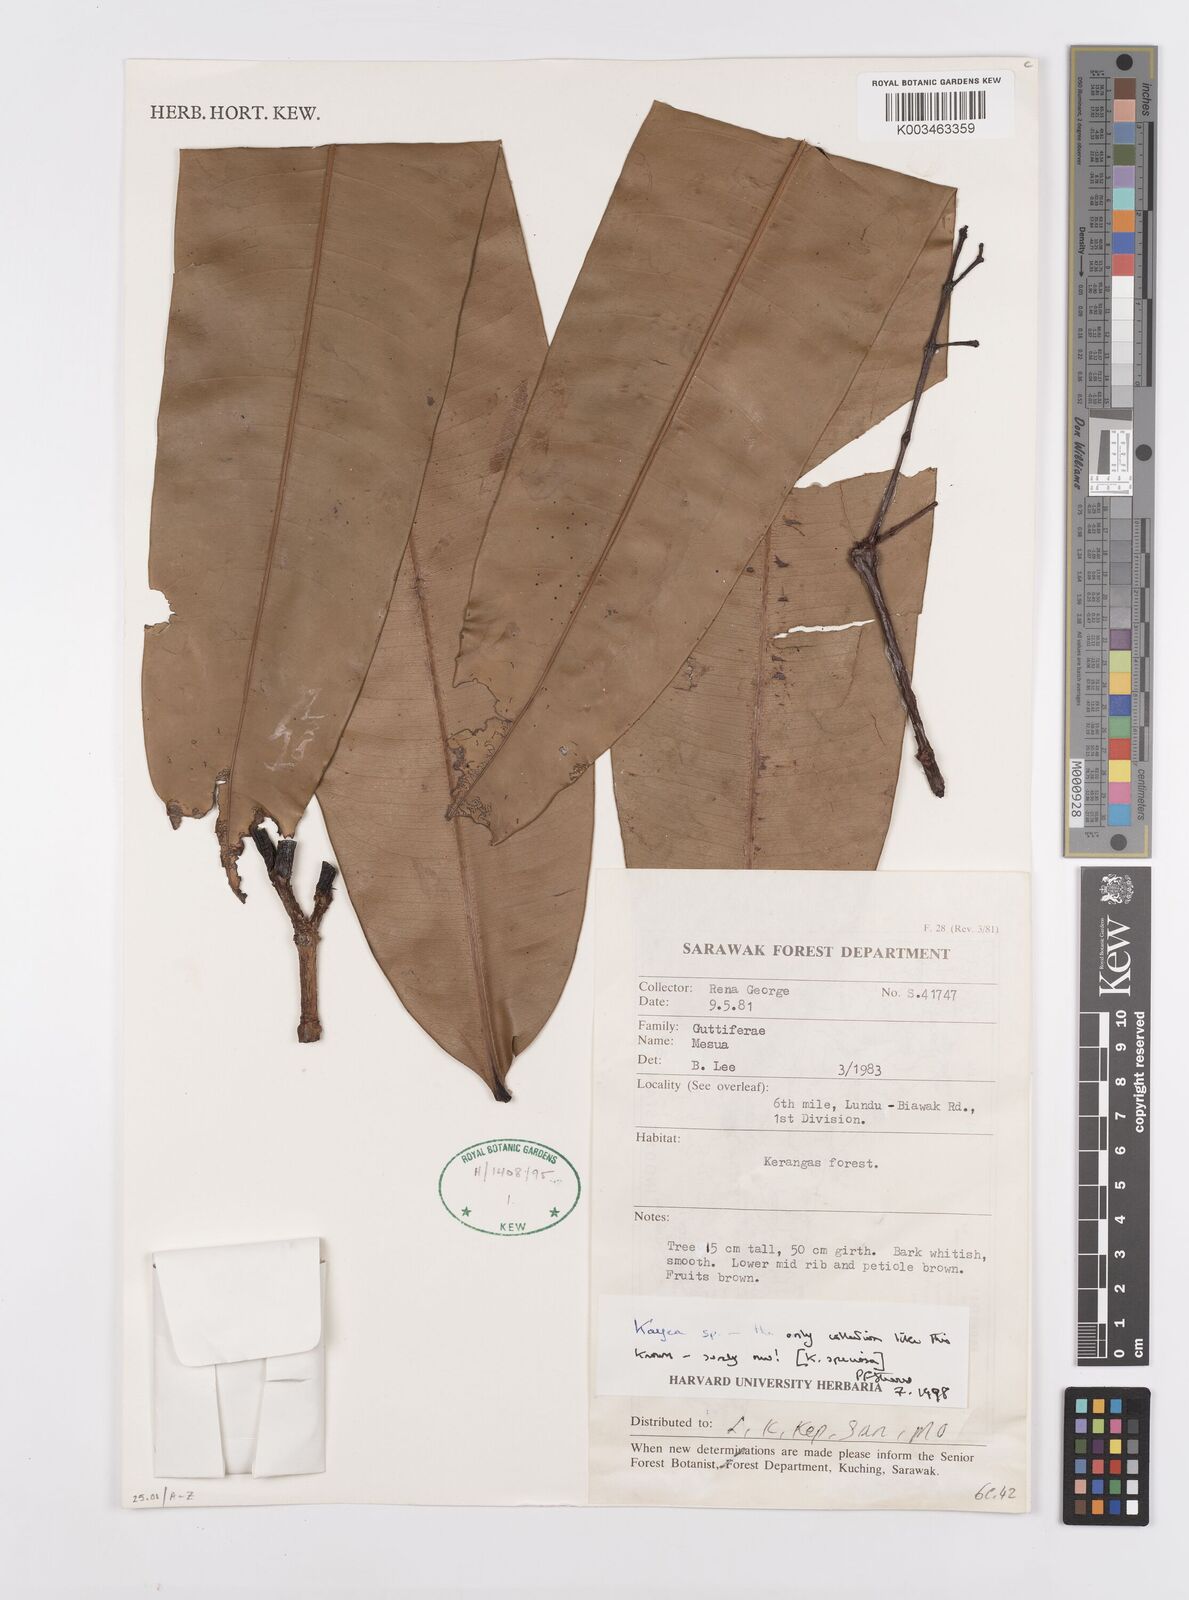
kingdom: Plantae
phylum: Tracheophyta
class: Magnoliopsida
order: Malpighiales
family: Calophyllaceae
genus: Kayea
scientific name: Kayea
